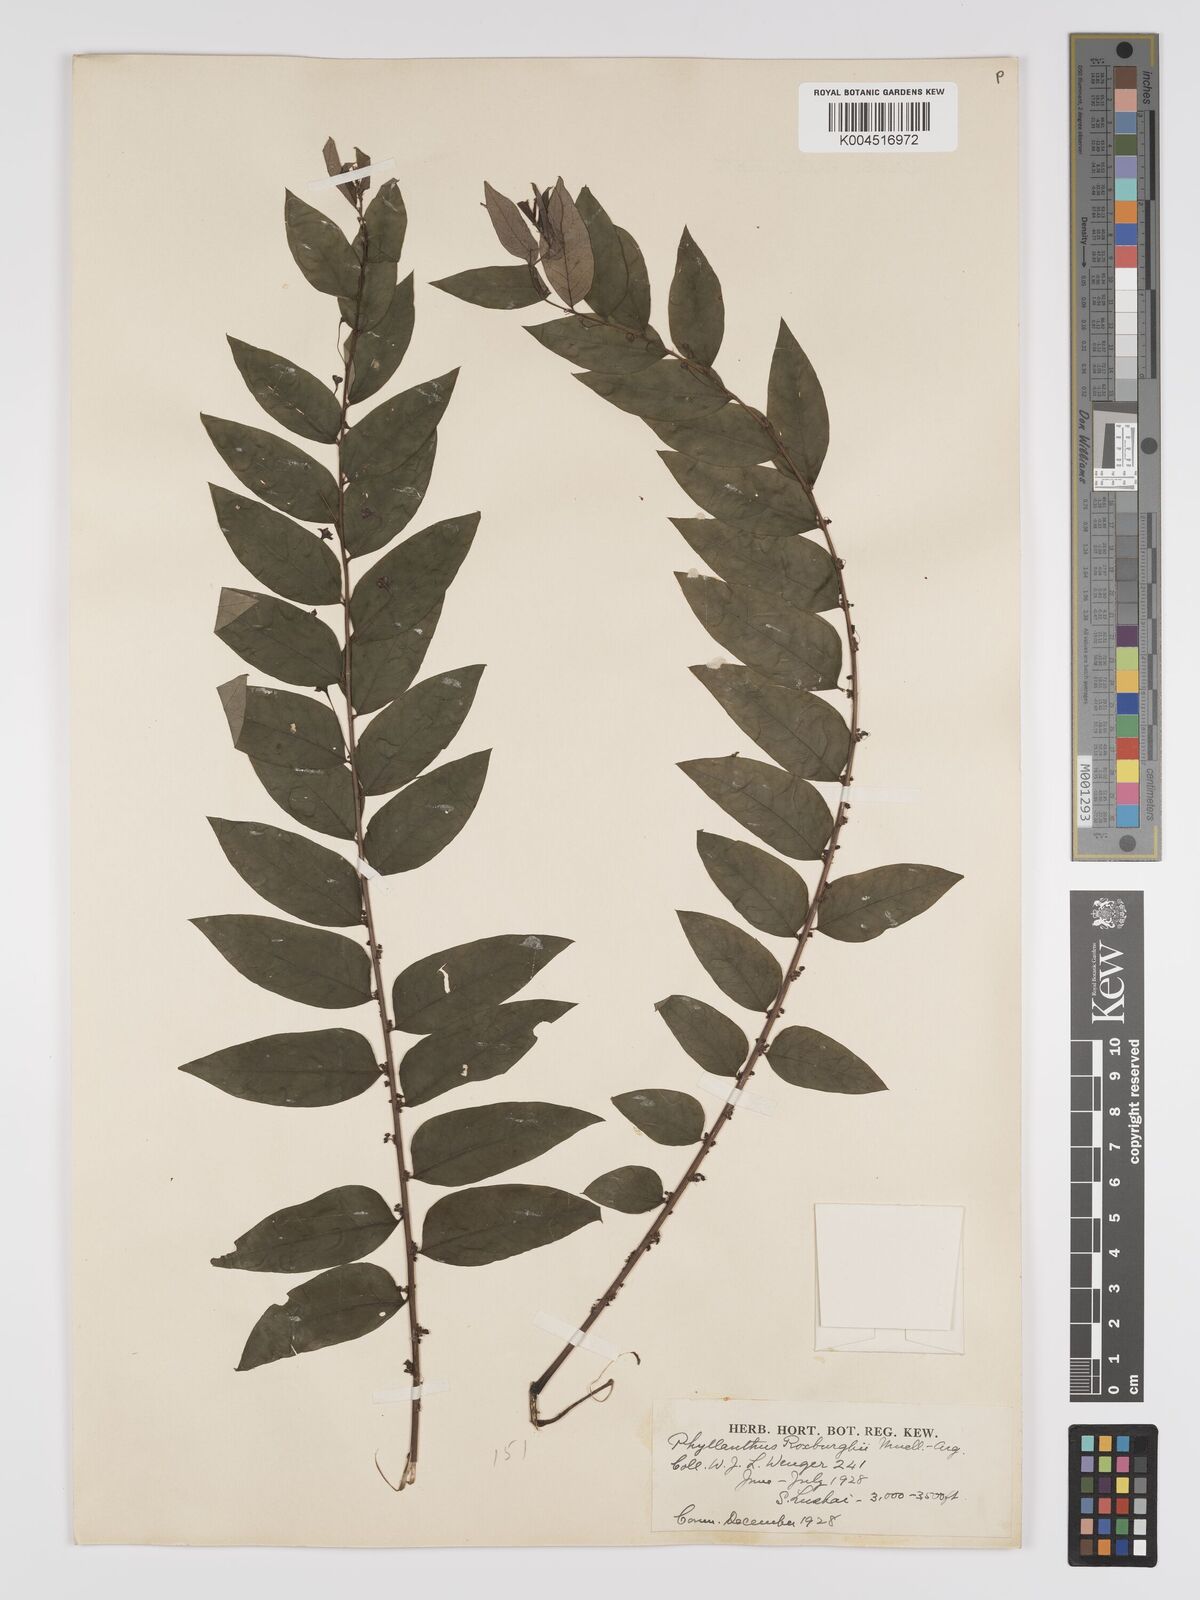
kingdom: Plantae
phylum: Tracheophyta
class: Magnoliopsida
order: Malpighiales
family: Phyllanthaceae
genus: Phyllanthus
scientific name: Phyllanthus tetrandrus
